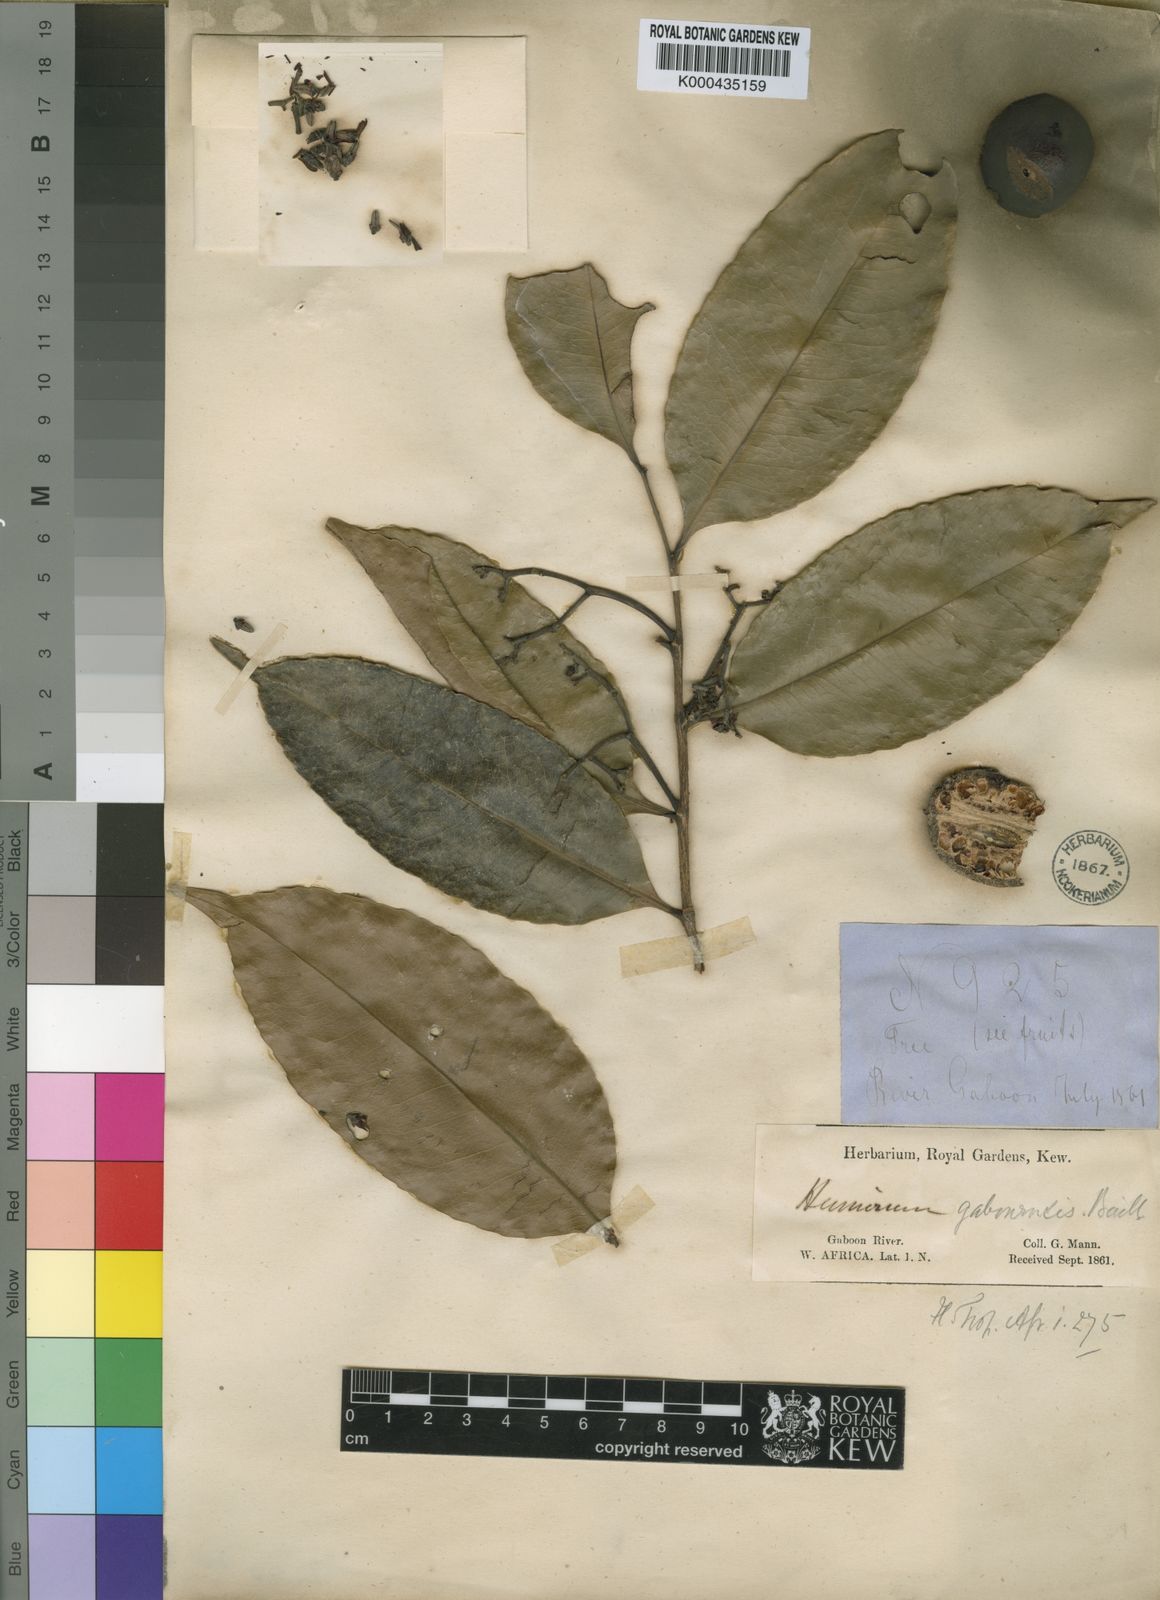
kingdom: Plantae
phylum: Tracheophyta
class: Magnoliopsida
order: Malpighiales
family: Humiriaceae
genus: Sacoglottis
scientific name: Sacoglottis gabonensis
